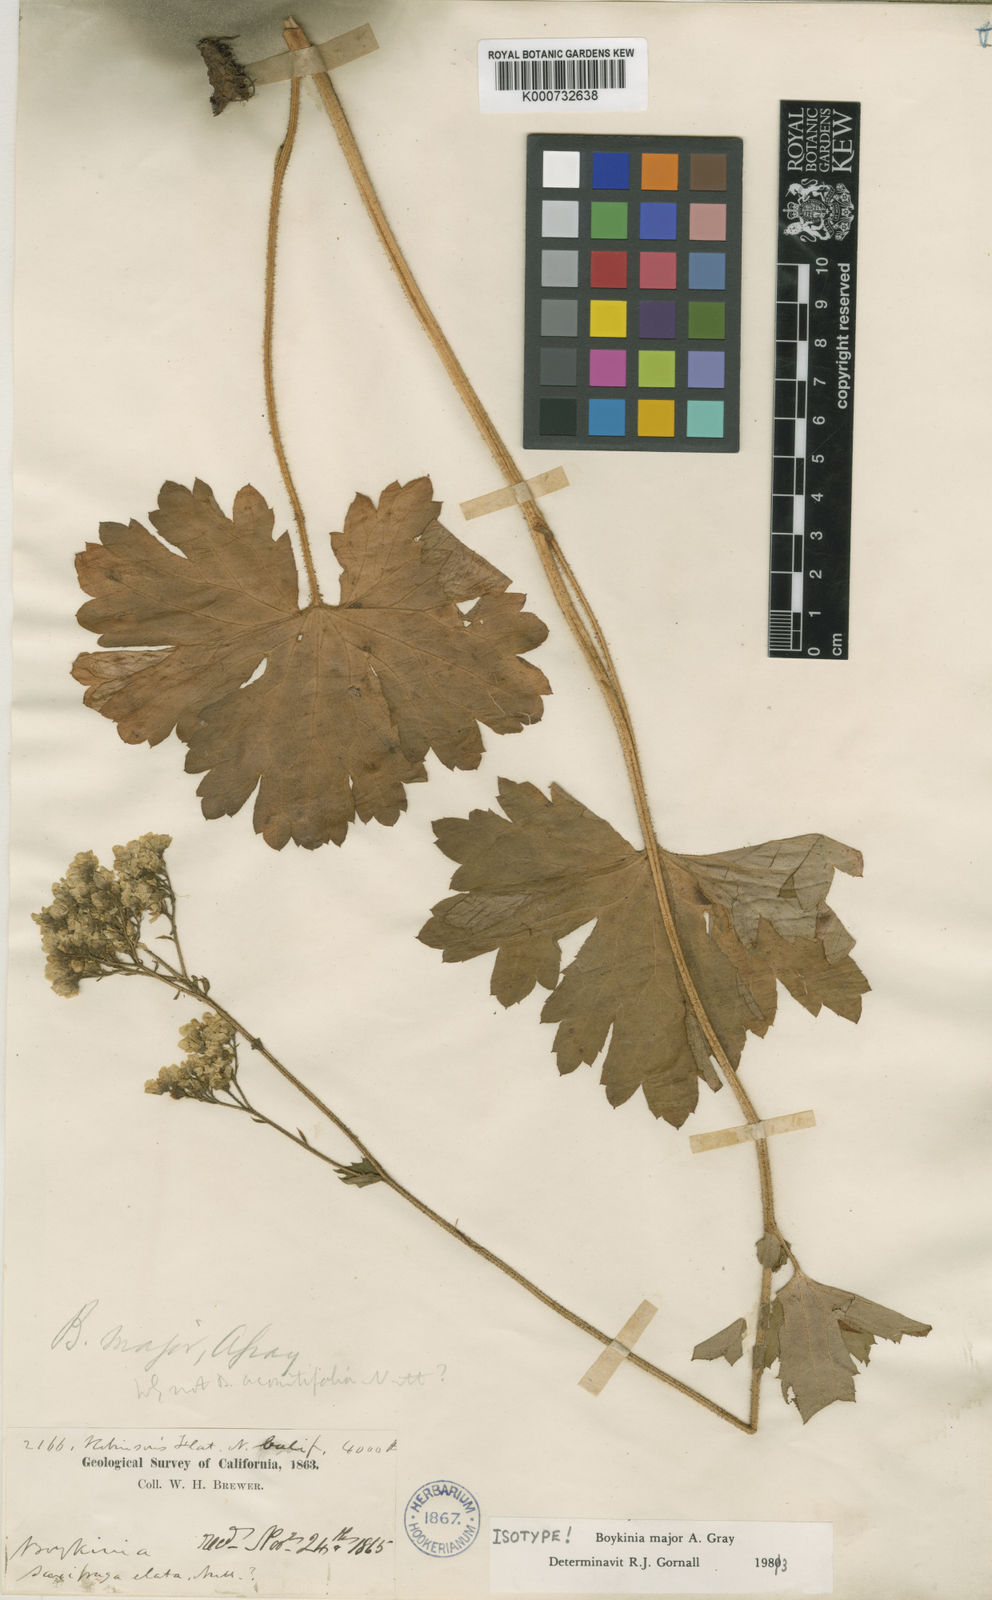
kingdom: Plantae
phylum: Tracheophyta
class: Magnoliopsida
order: Saxifragales
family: Saxifragaceae
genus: Boykinia
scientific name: Boykinia major
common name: Large boykinia
